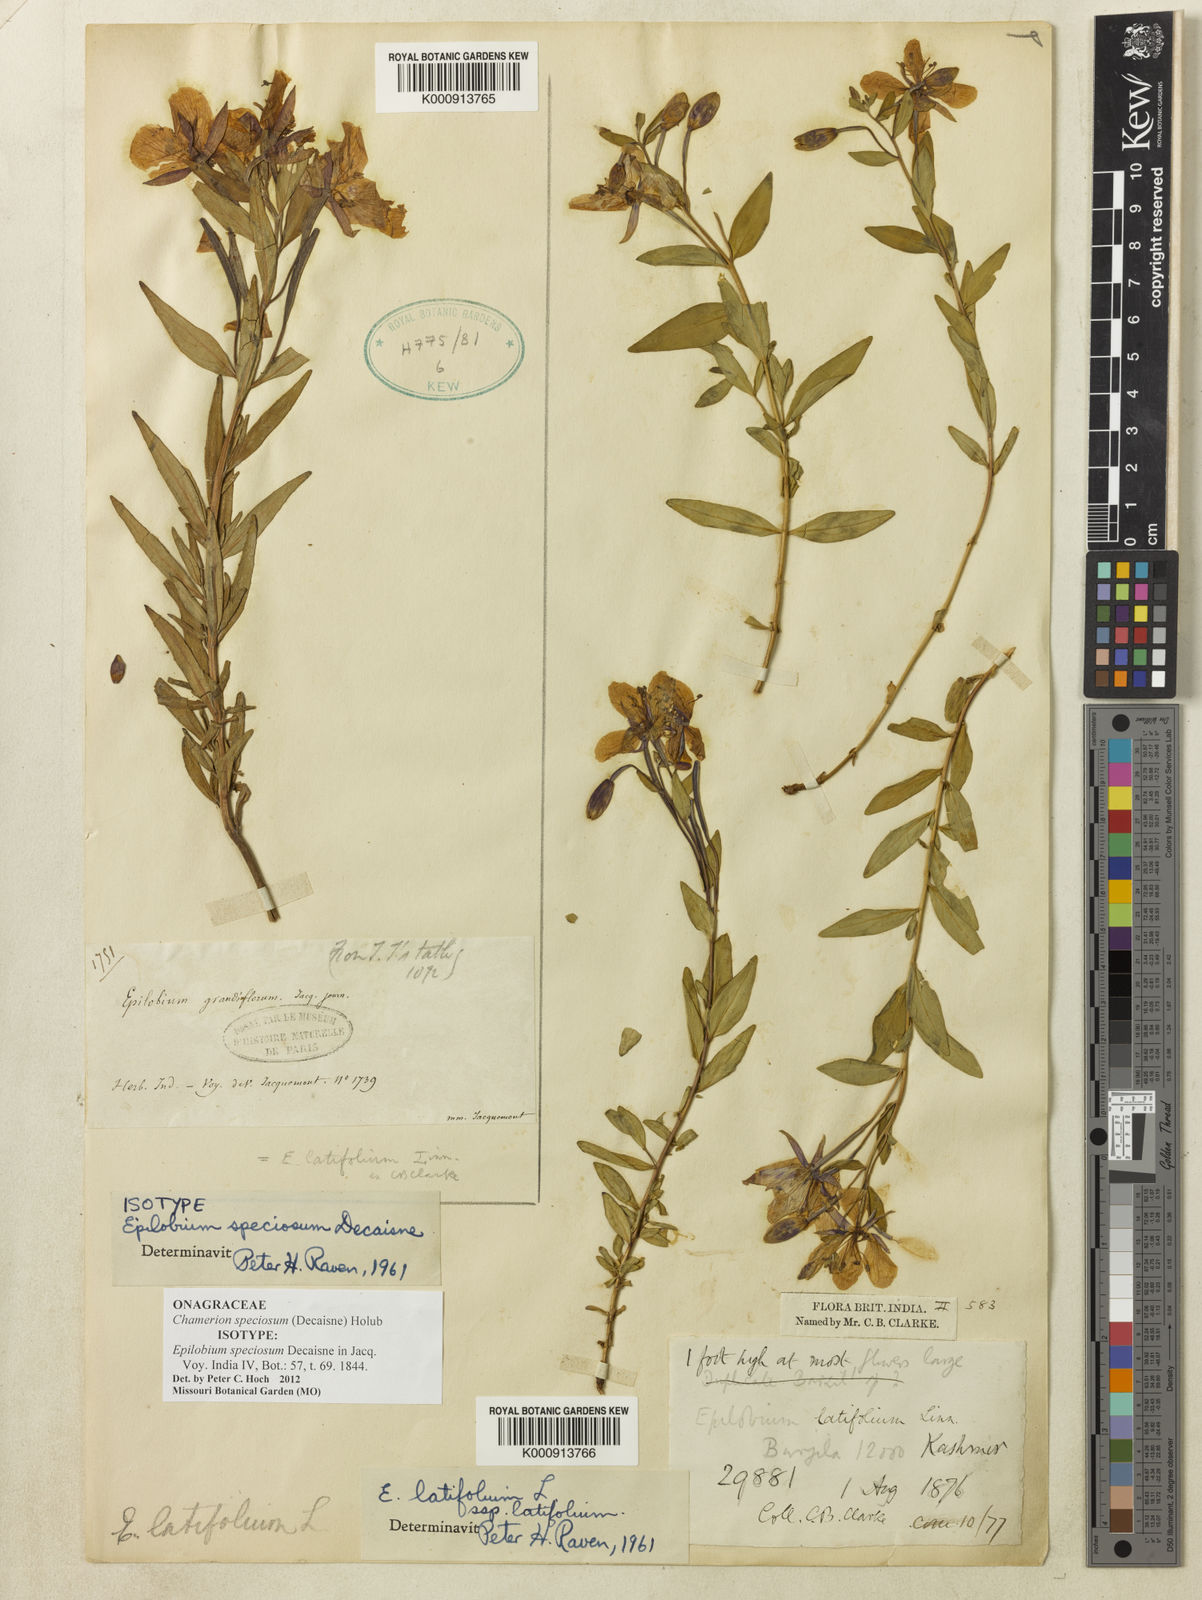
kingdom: Plantae
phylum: Tracheophyta
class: Magnoliopsida
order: Myrtales
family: Onagraceae
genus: Chamaenerion
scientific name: Chamaenerion speciosum
